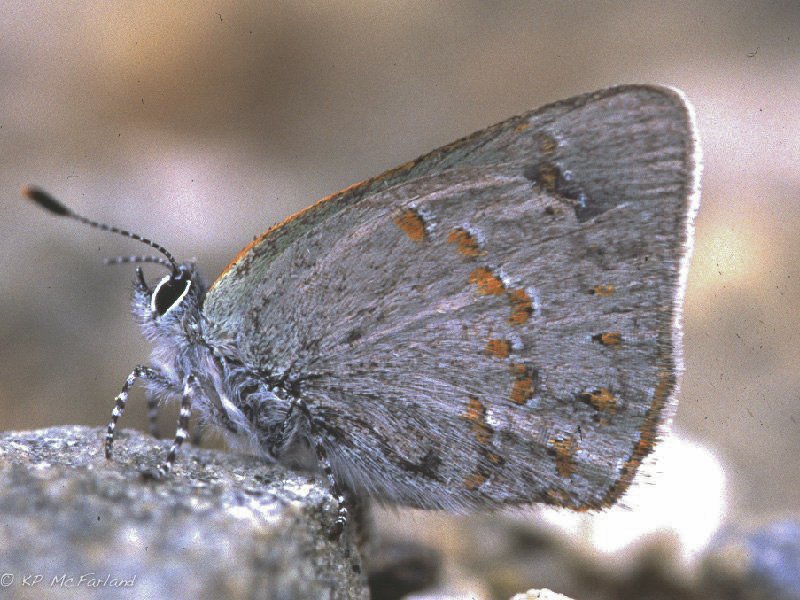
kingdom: Animalia
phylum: Arthropoda
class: Insecta
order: Lepidoptera
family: Lycaenidae
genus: Erora
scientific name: Erora laeta
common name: Early Hairstreak
